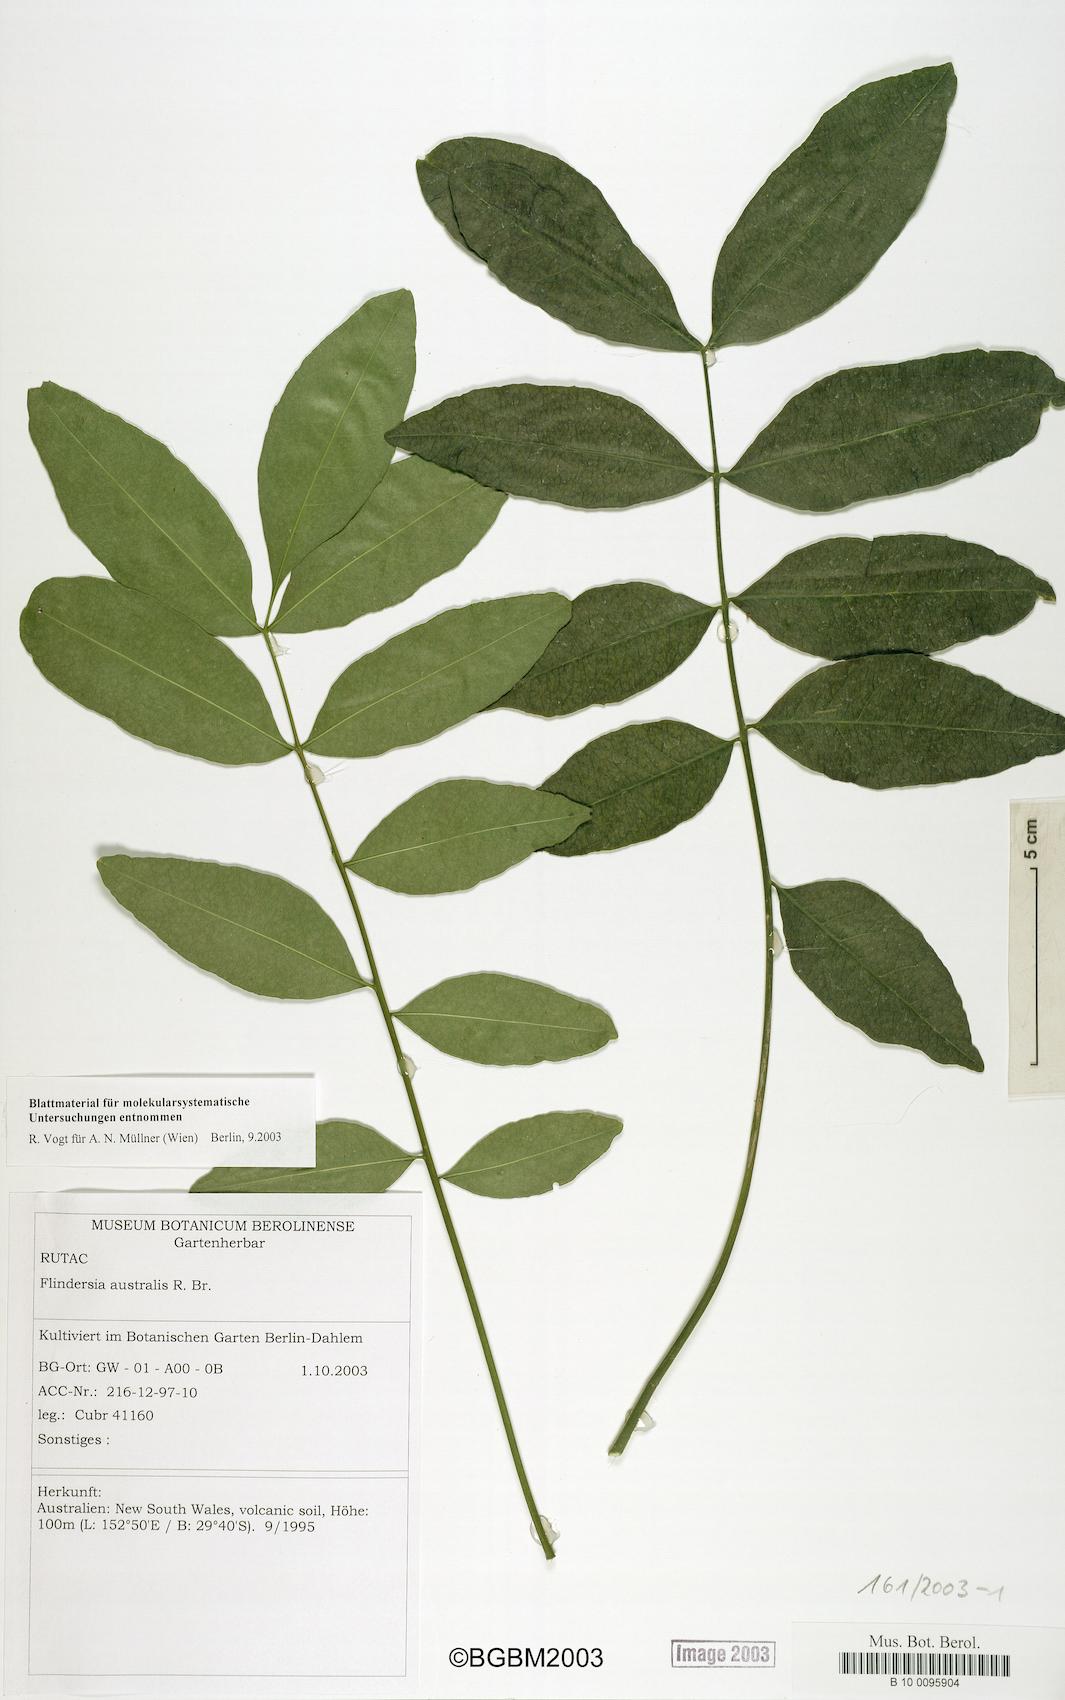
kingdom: Plantae
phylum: Tracheophyta
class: Magnoliopsida
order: Sapindales
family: Rutaceae
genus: Flindersia
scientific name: Flindersia australis
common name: Australian-teak
